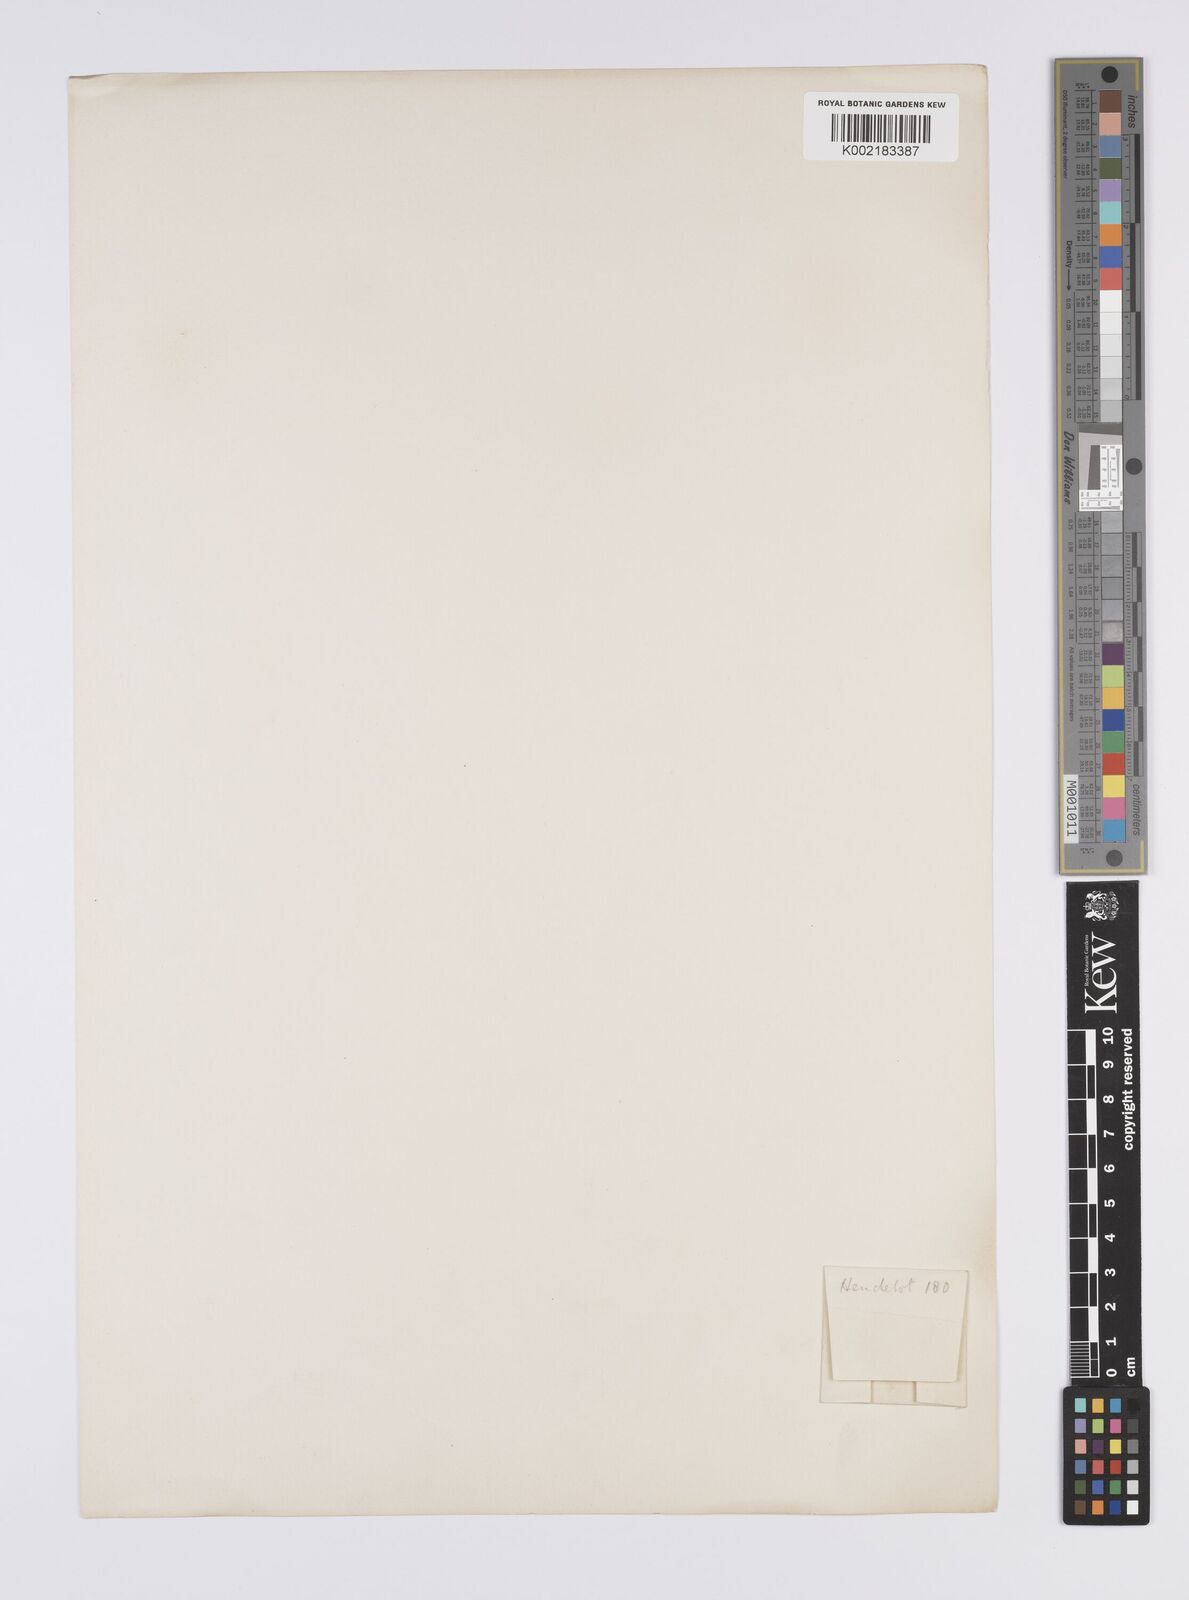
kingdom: Plantae
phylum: Tracheophyta
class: Liliopsida
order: Poales
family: Eriocaulaceae
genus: Eriocaulon
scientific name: Eriocaulon plumale
